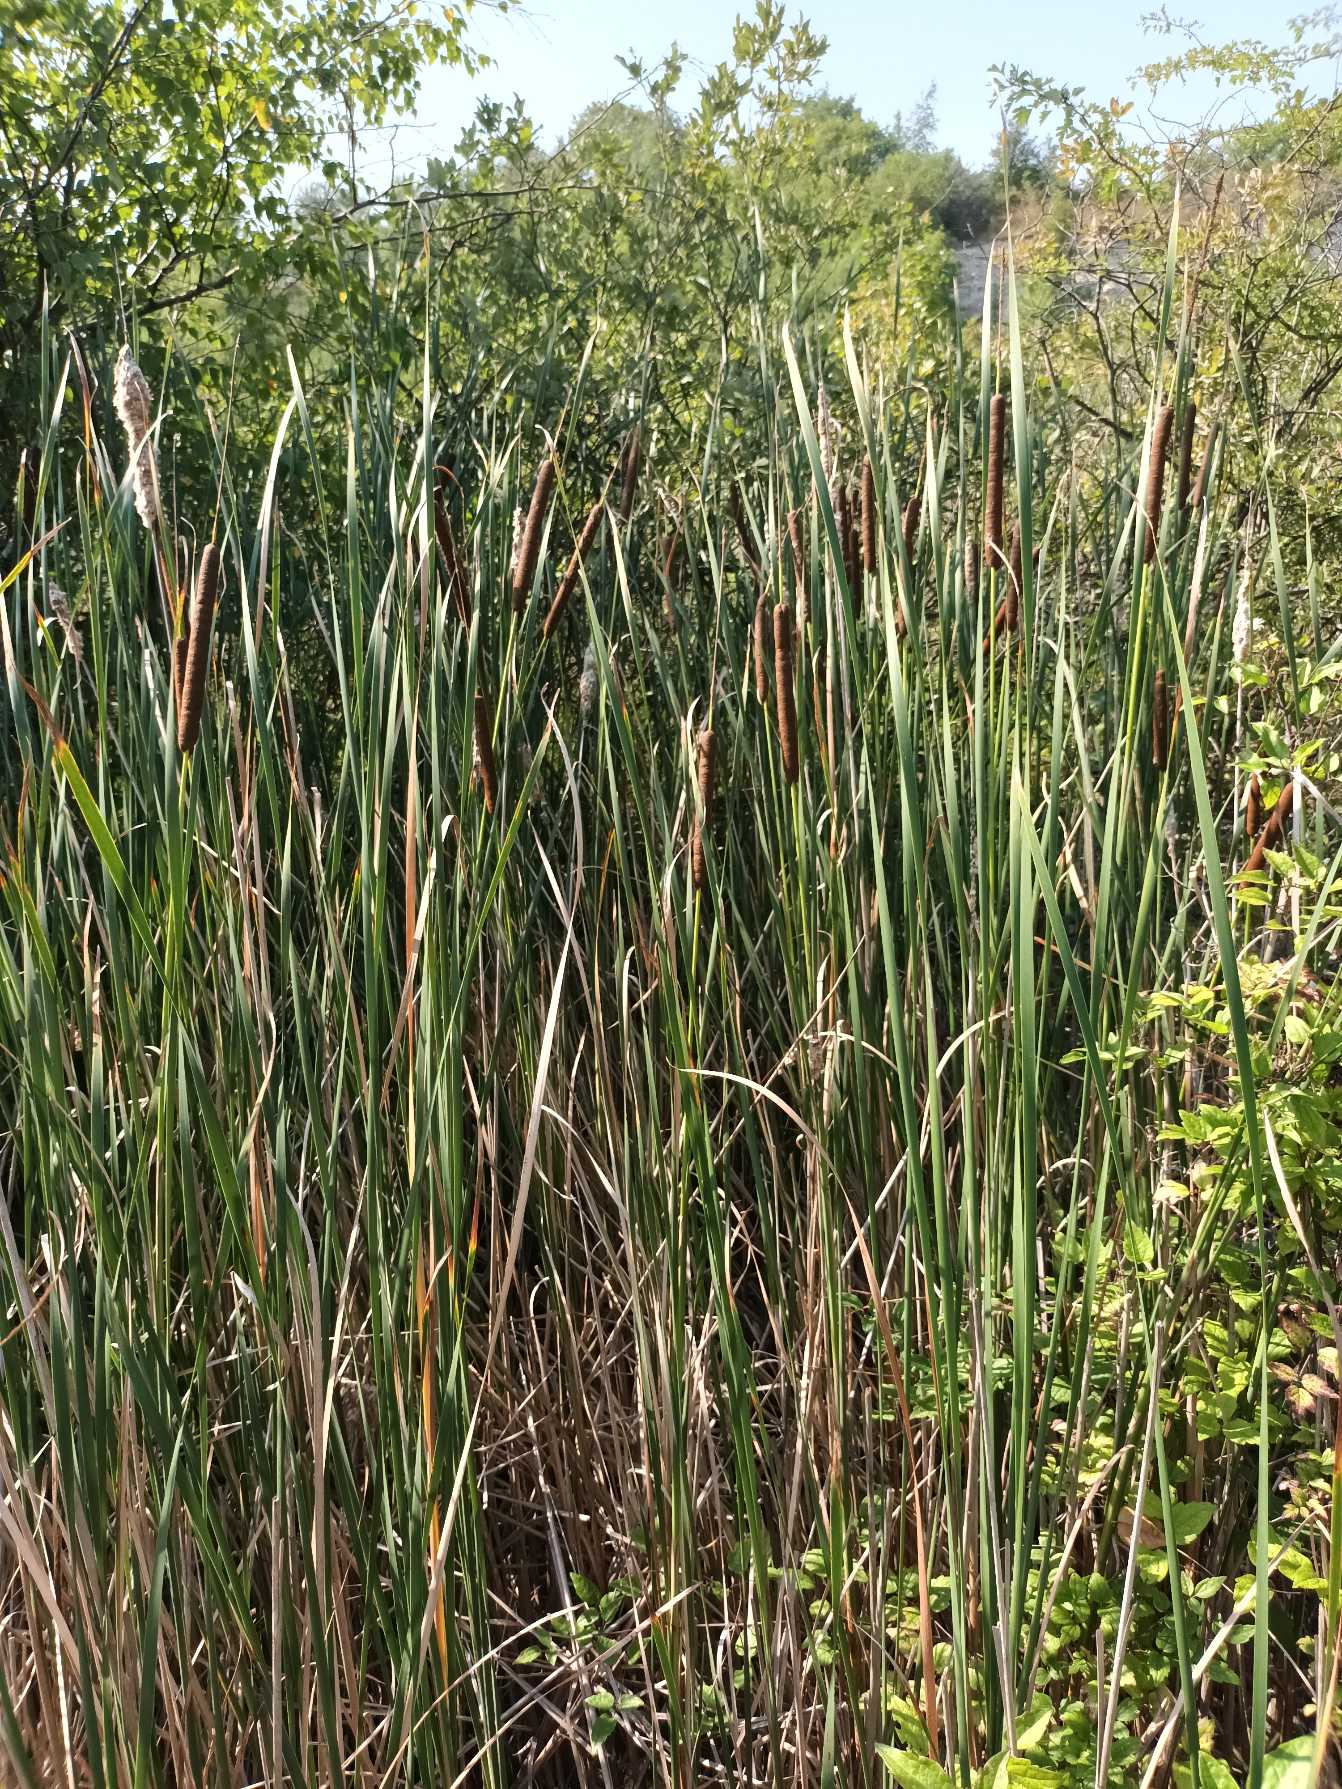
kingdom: Plantae
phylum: Tracheophyta
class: Liliopsida
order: Poales
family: Typhaceae
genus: Typha
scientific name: Typha angustifolia
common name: Smalbladet dunhammer
